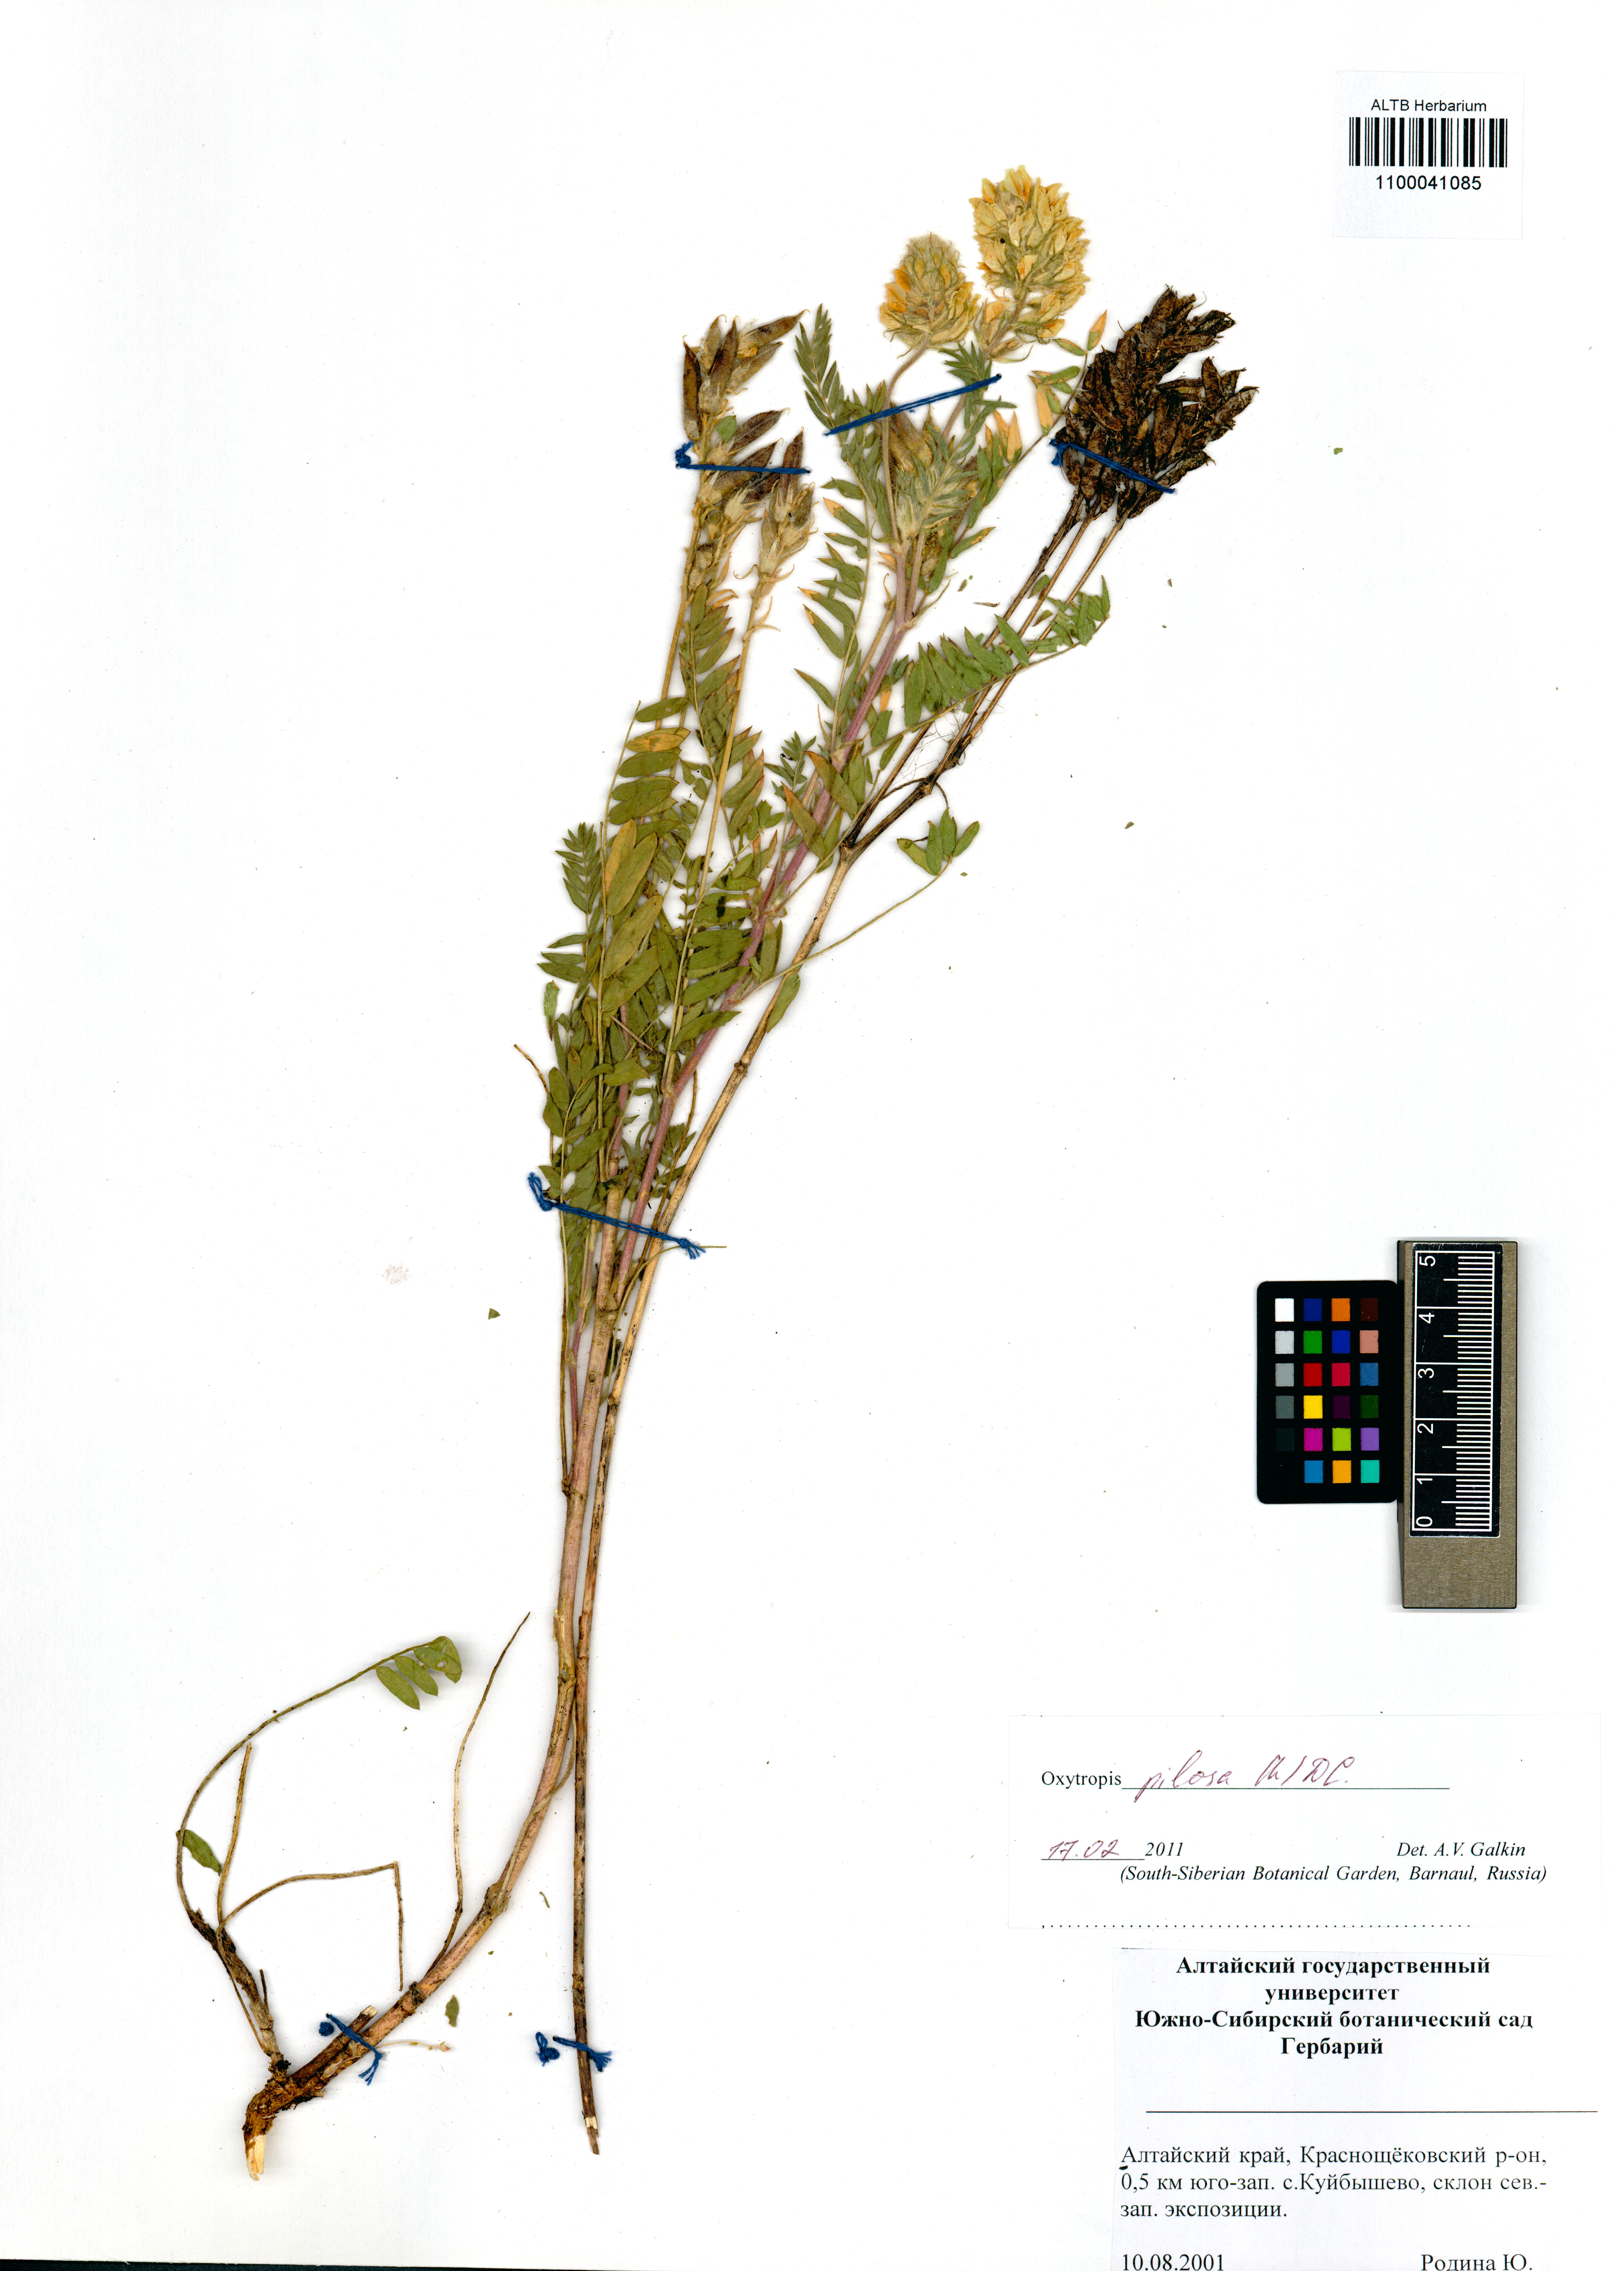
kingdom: Plantae
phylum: Tracheophyta
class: Magnoliopsida
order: Fabales
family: Fabaceae
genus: Oxytropis
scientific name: Oxytropis pilosa
